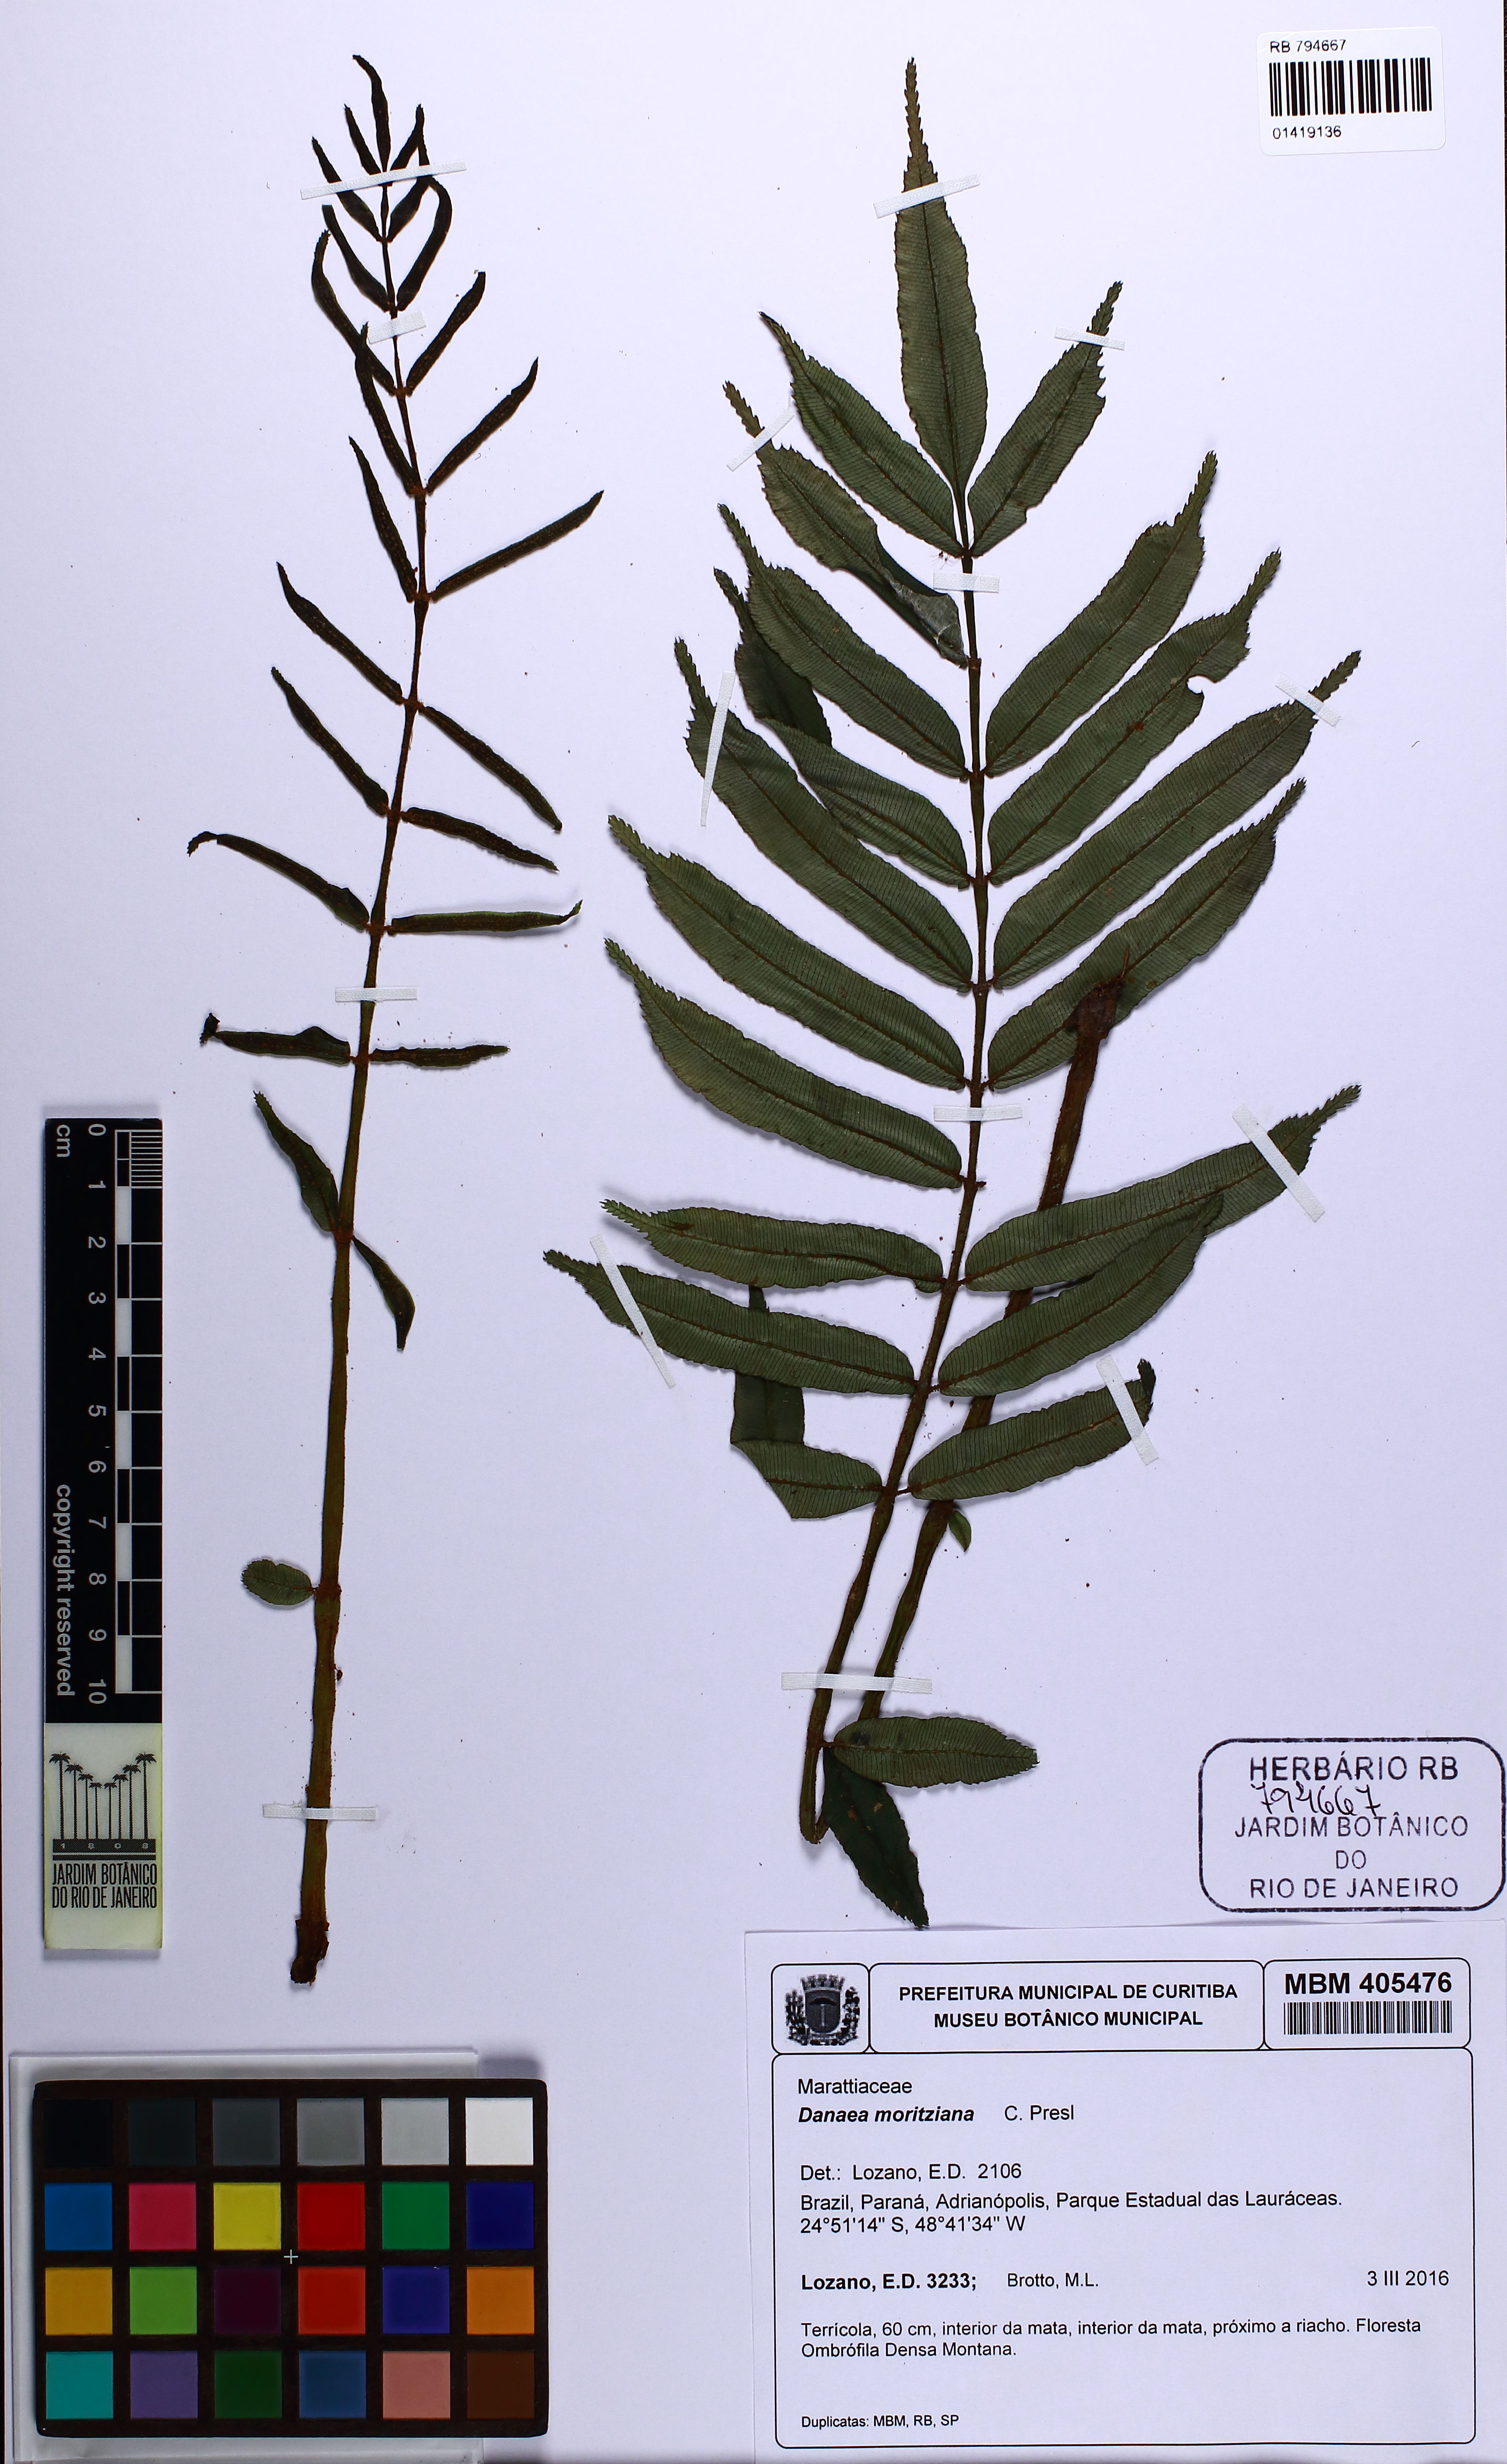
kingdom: Plantae
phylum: Tracheophyta
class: Polypodiopsida
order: Marattiales
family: Marattiaceae
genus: Danaea
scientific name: Danaea moritziana
